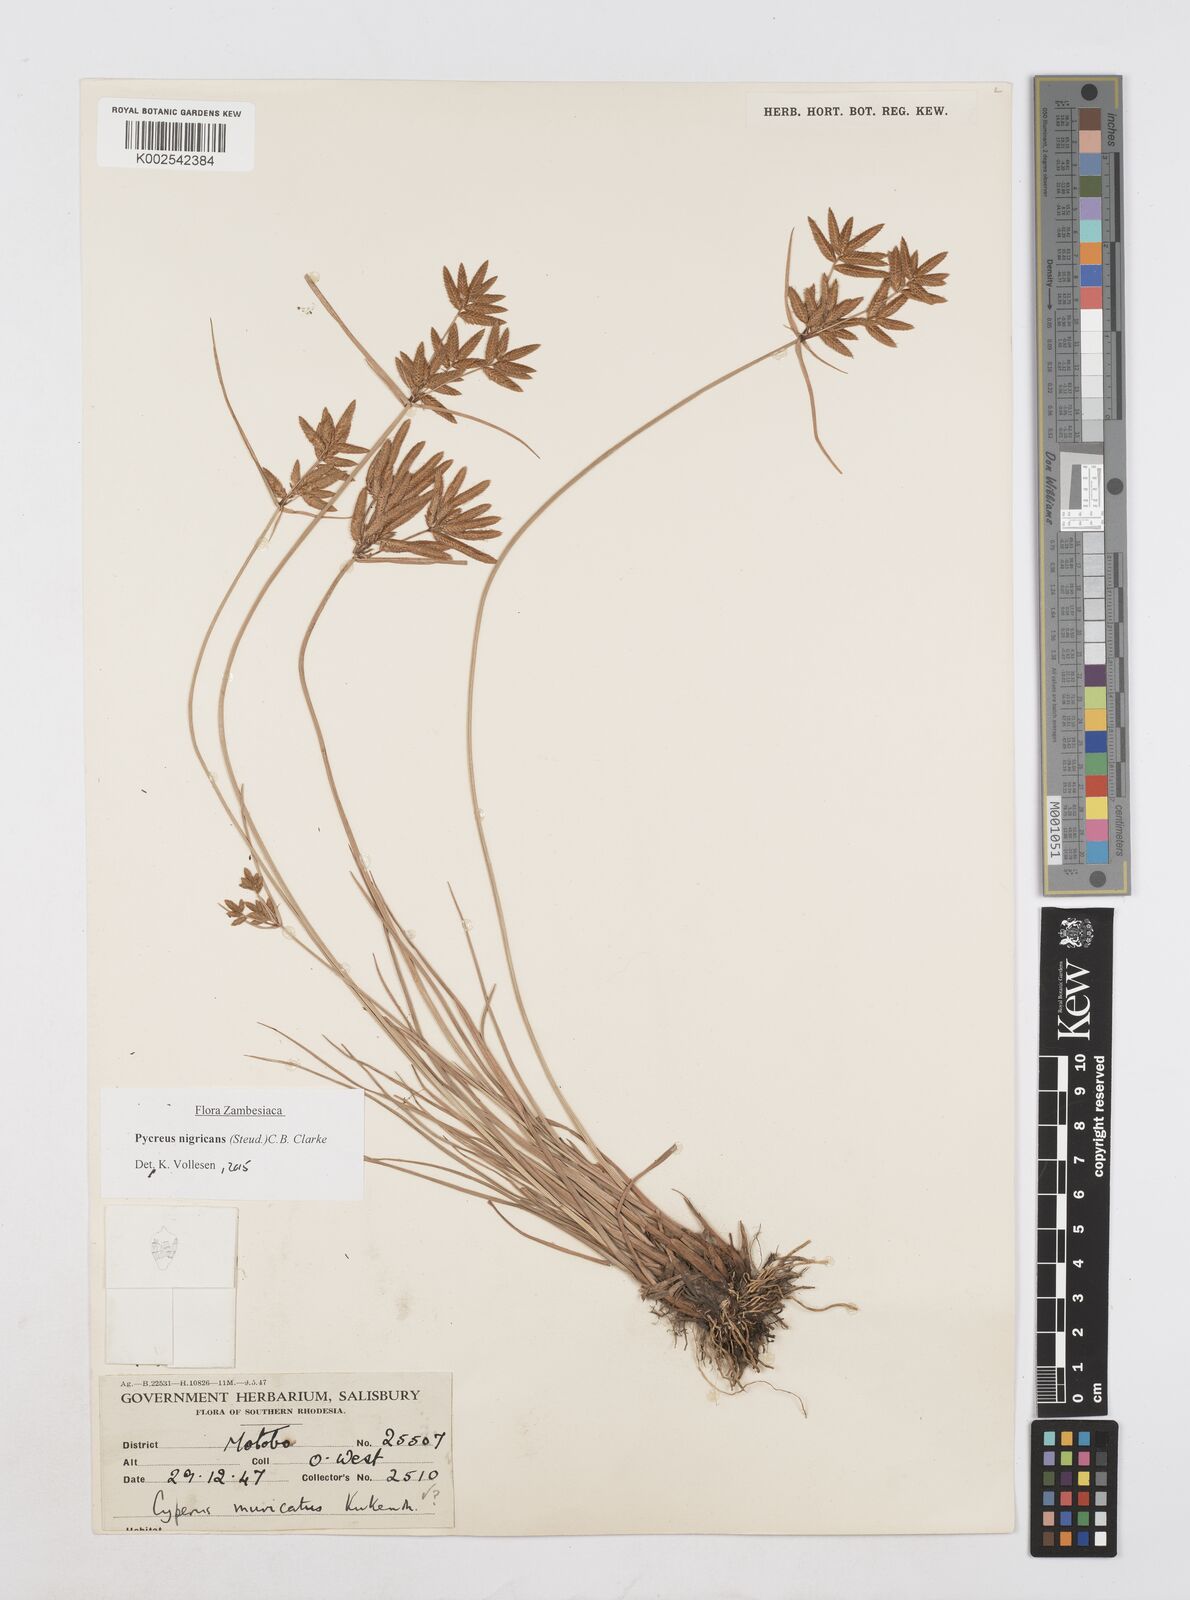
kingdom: Plantae
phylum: Tracheophyta
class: Liliopsida
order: Poales
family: Cyperaceae
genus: Cyperus
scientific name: Cyperus nigricans
